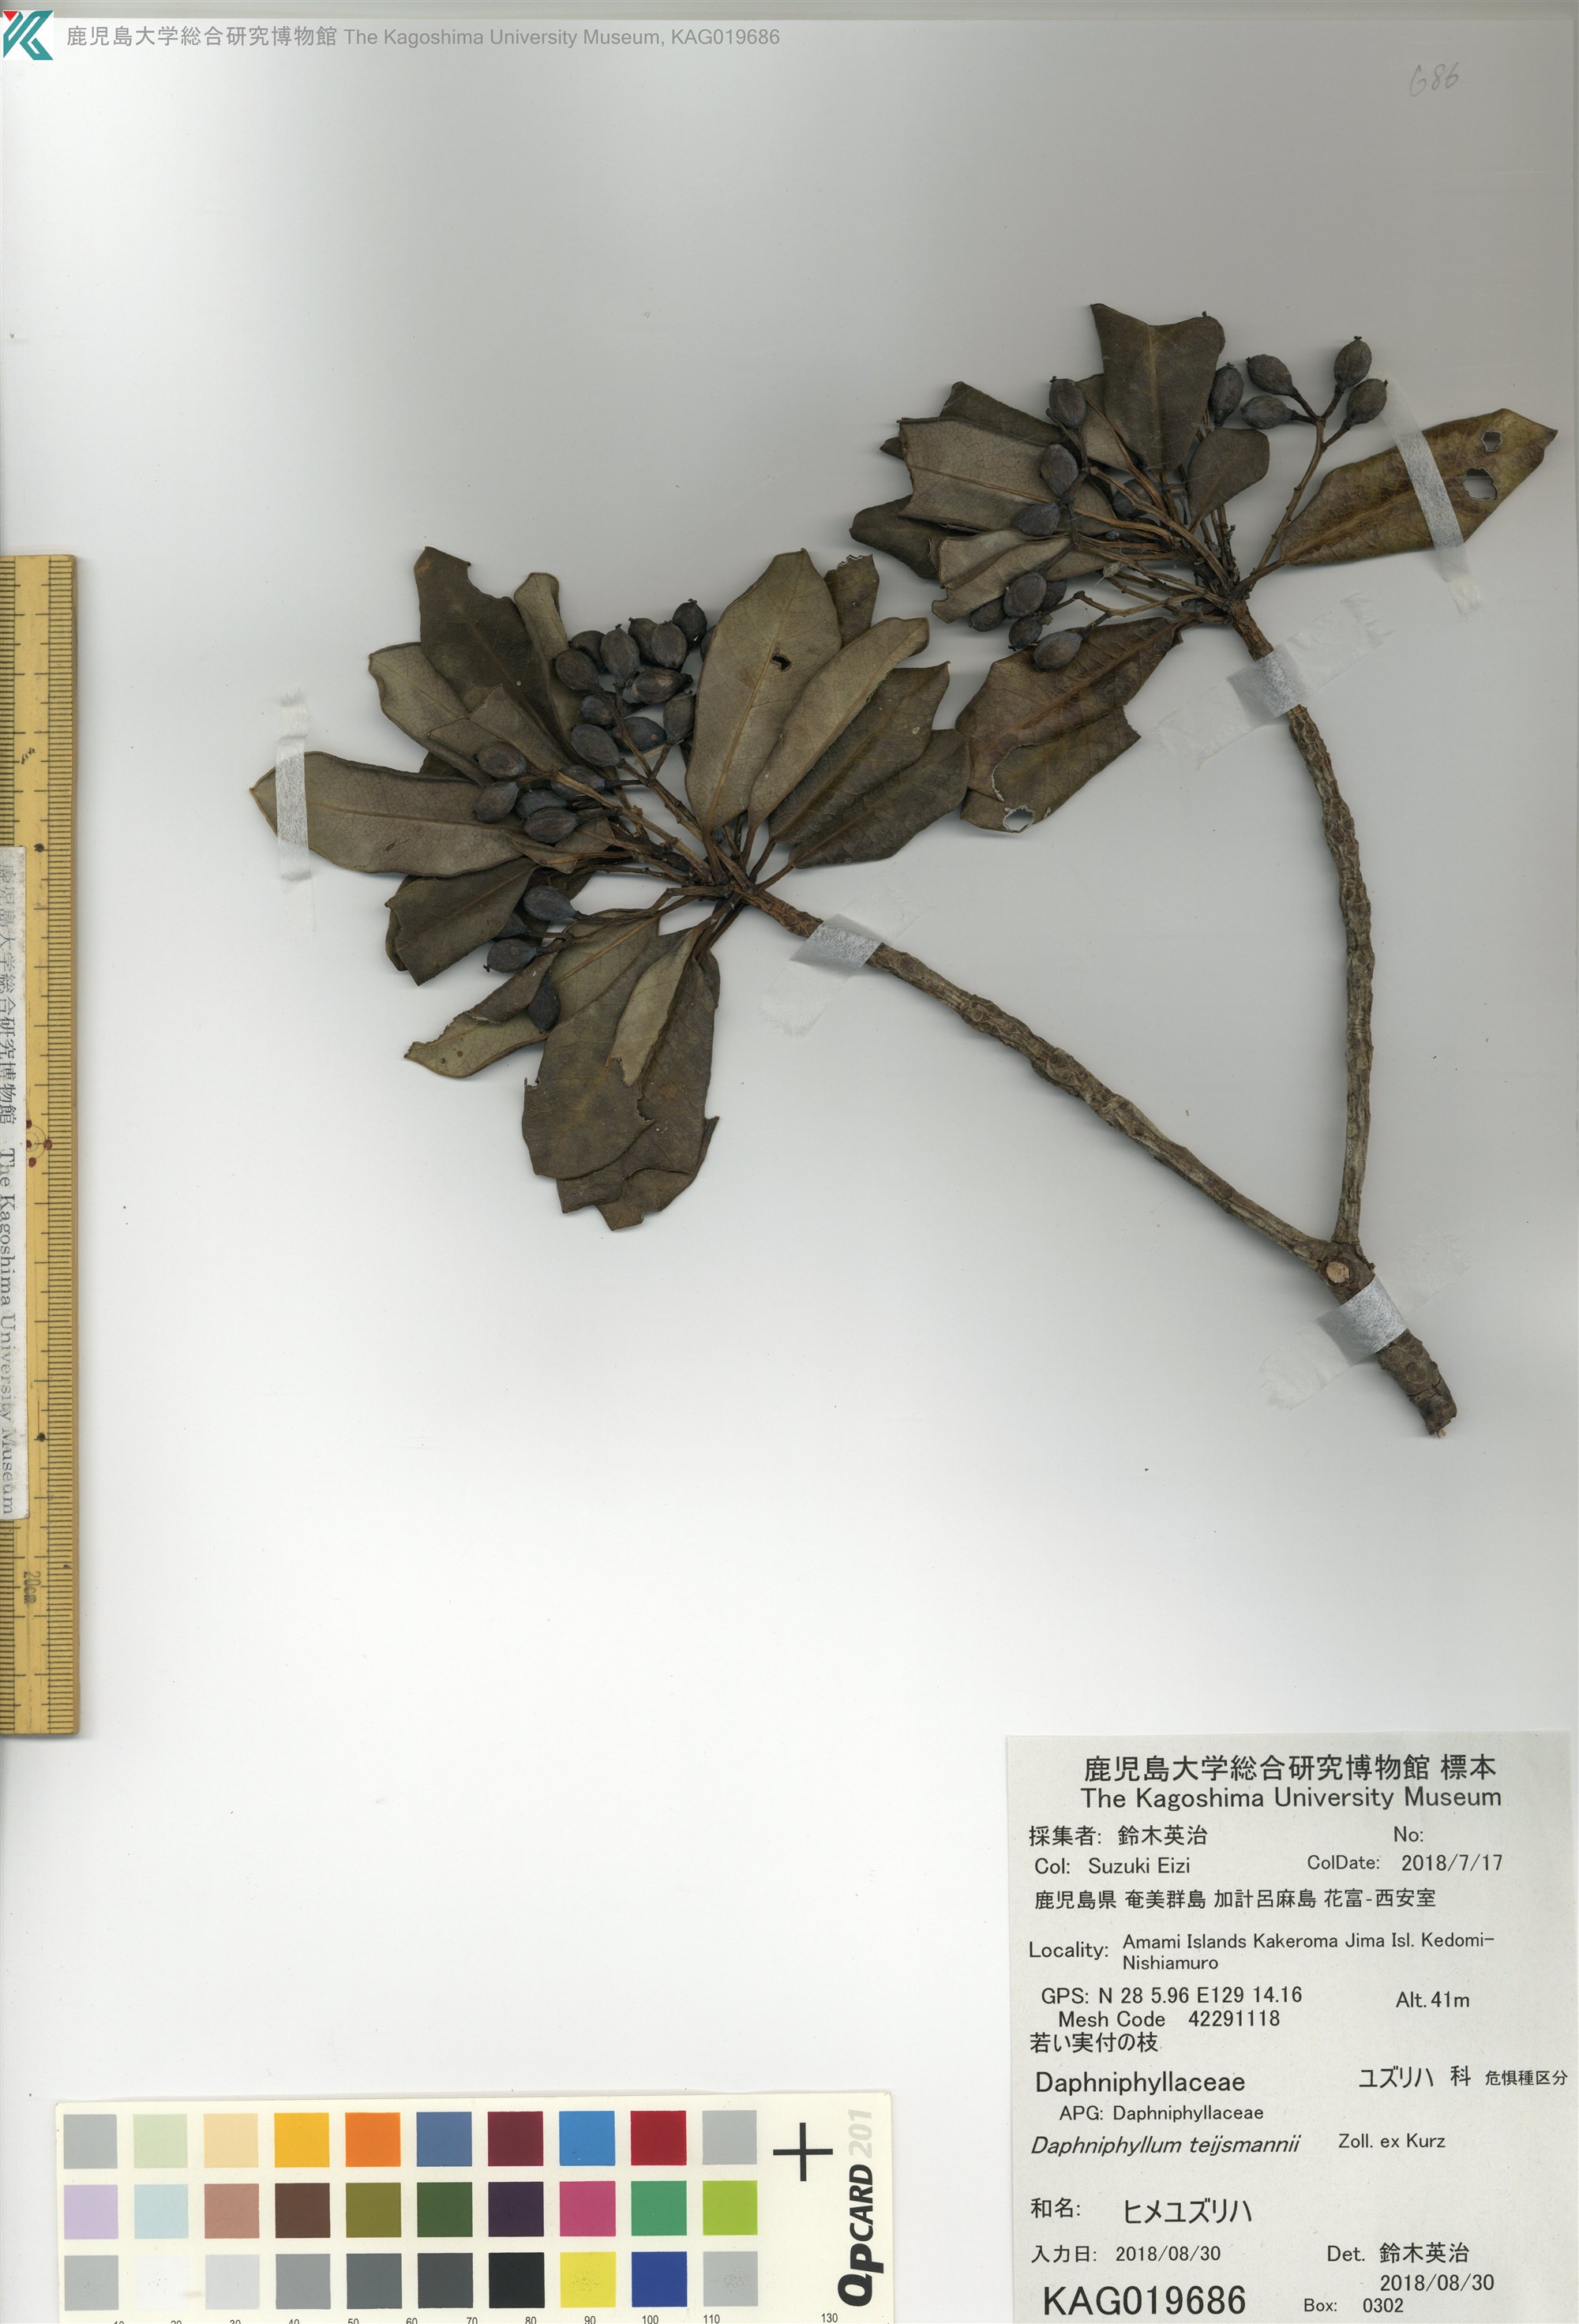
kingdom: Plantae
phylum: Tracheophyta
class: Magnoliopsida
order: Saxifragales
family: Daphniphyllaceae
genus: Daphniphyllum
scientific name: Daphniphyllum teijsmannii
